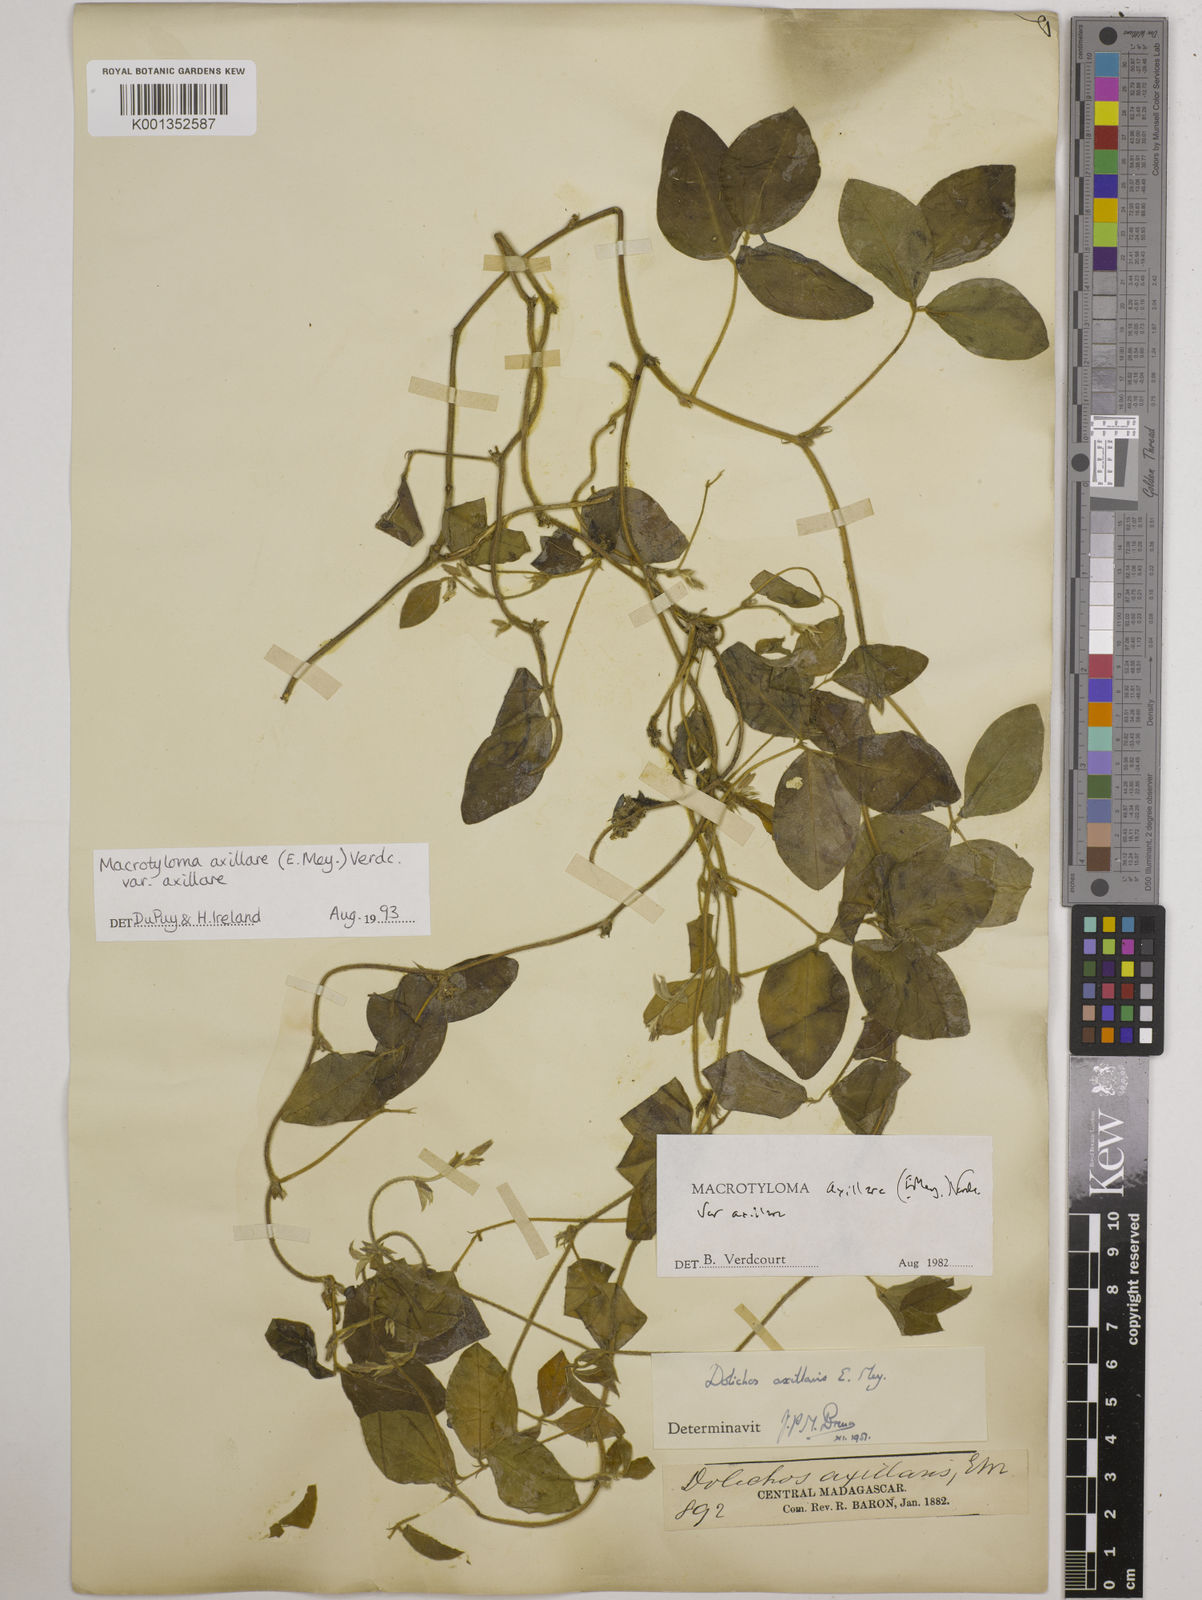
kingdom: Plantae
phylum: Tracheophyta
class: Magnoliopsida
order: Fabales
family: Fabaceae
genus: Macrotyloma
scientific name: Macrotyloma axillare
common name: Perennial horsegram
